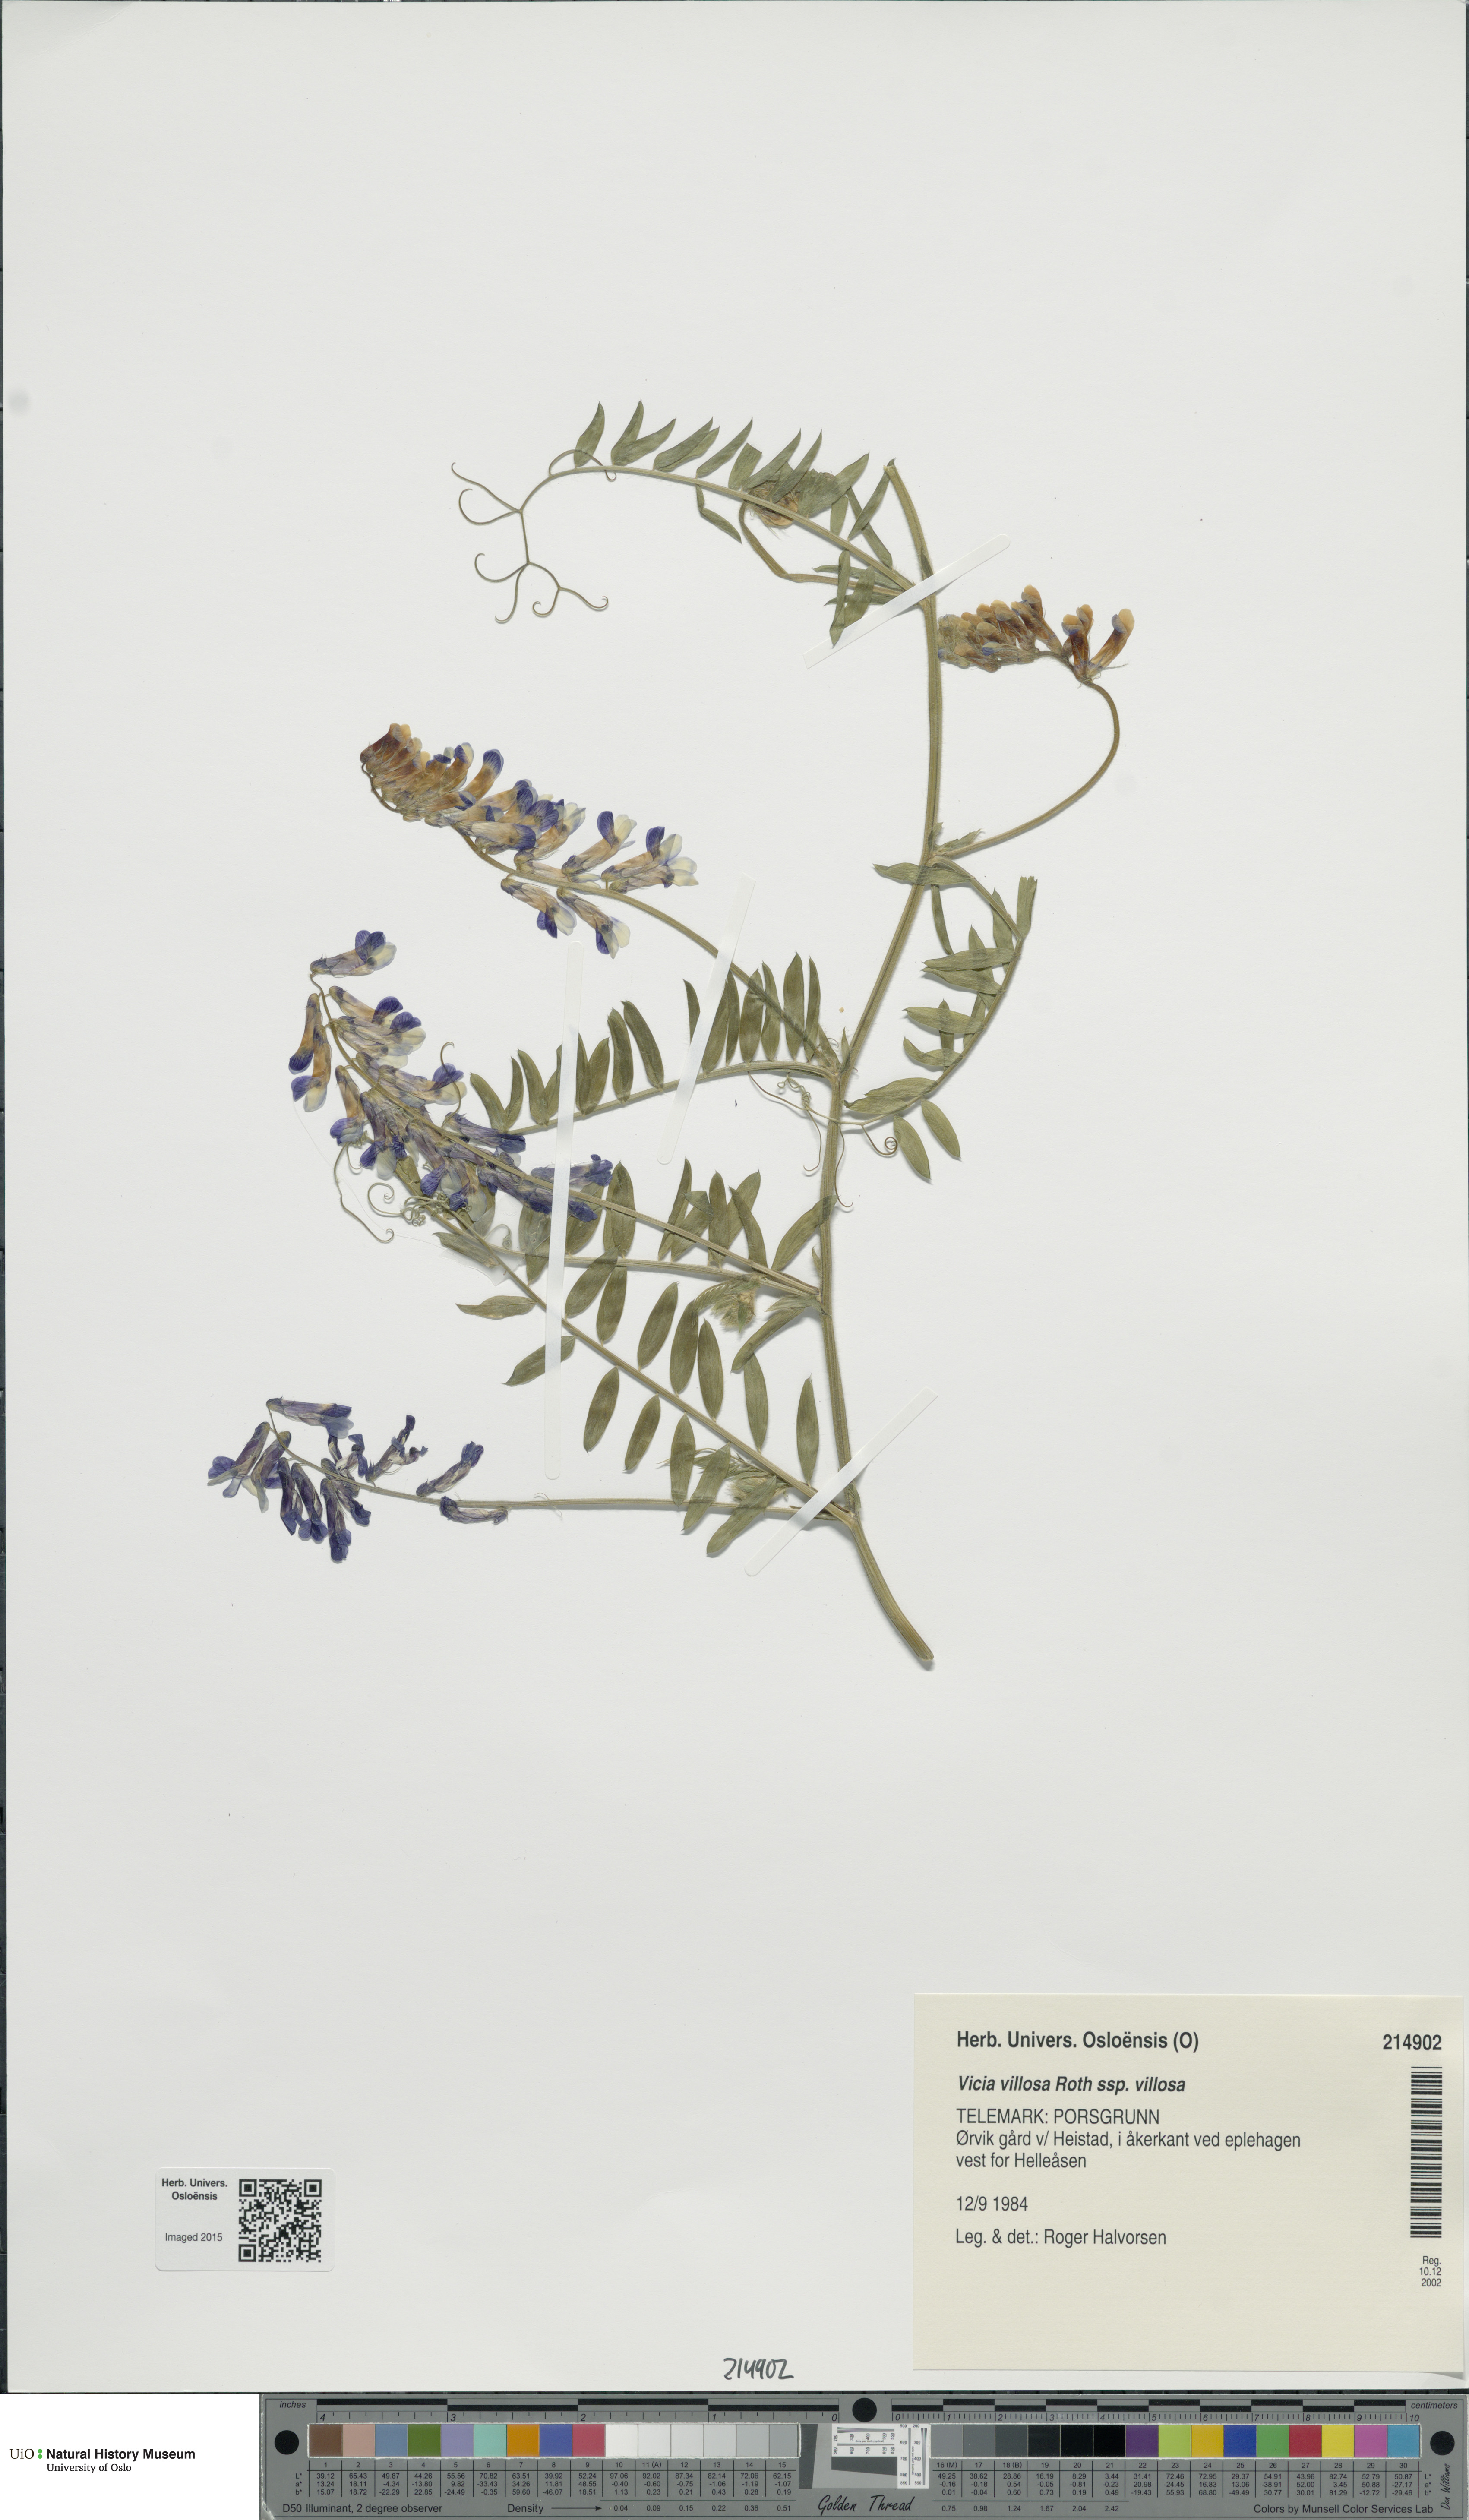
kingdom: Plantae
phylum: Tracheophyta
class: Magnoliopsida
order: Fabales
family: Fabaceae
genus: Vicia
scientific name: Vicia villosa
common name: Fodder vetch
